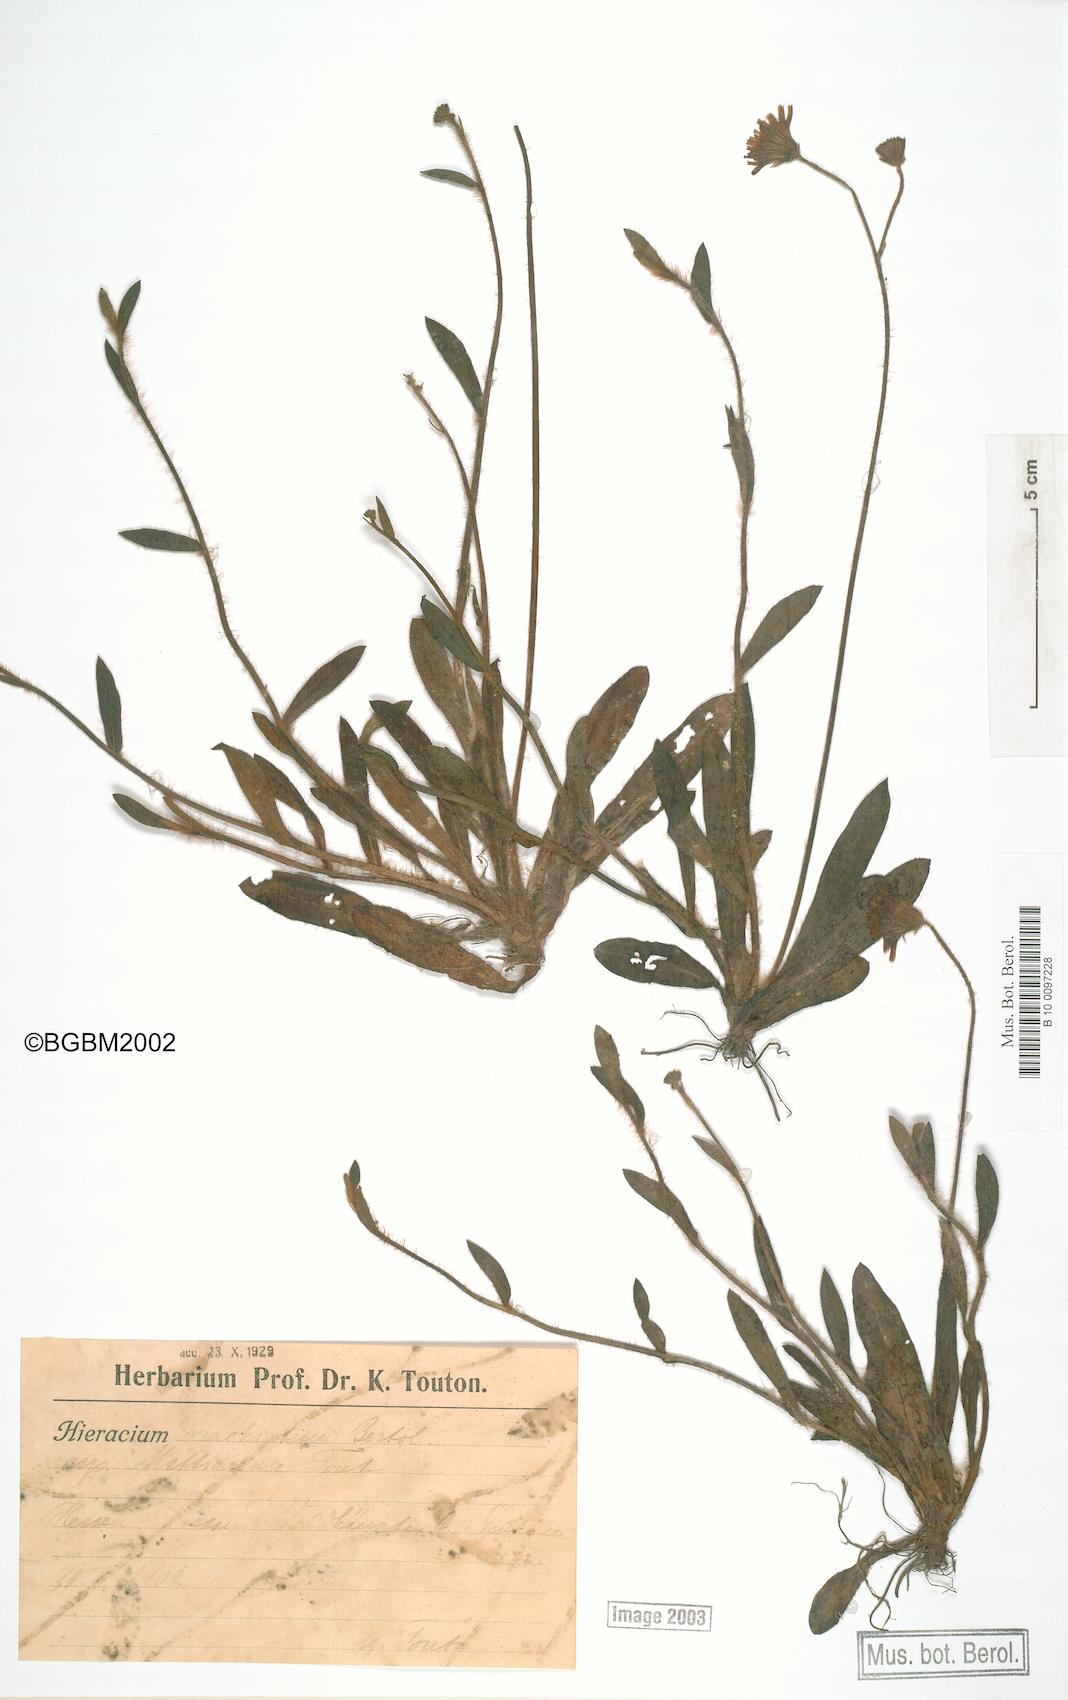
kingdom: Plantae
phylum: Tracheophyta
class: Magnoliopsida
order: Asterales
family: Asteraceae
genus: Pilosella
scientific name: Pilosella acutifolia
